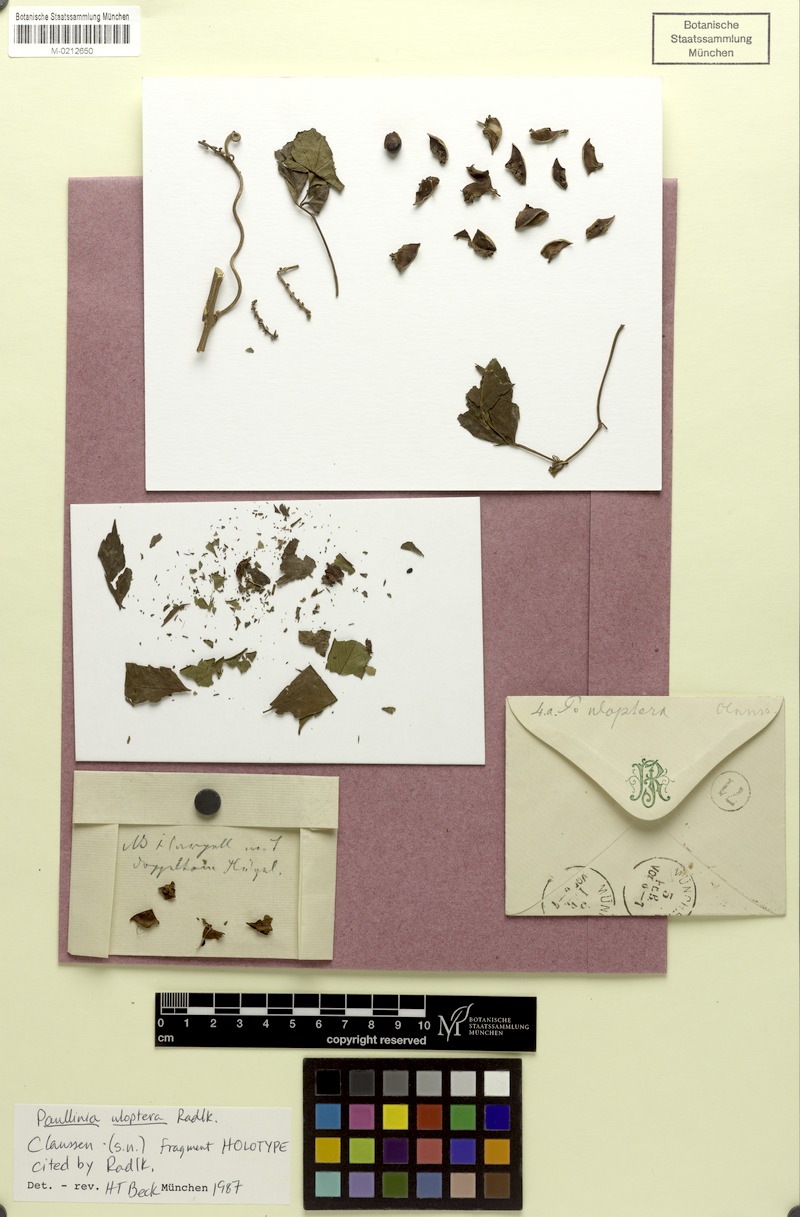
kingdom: Plantae
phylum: Tracheophyta
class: Magnoliopsida
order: Sapindales
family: Sapindaceae
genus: Paullinia
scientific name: Paullinia uloptera
